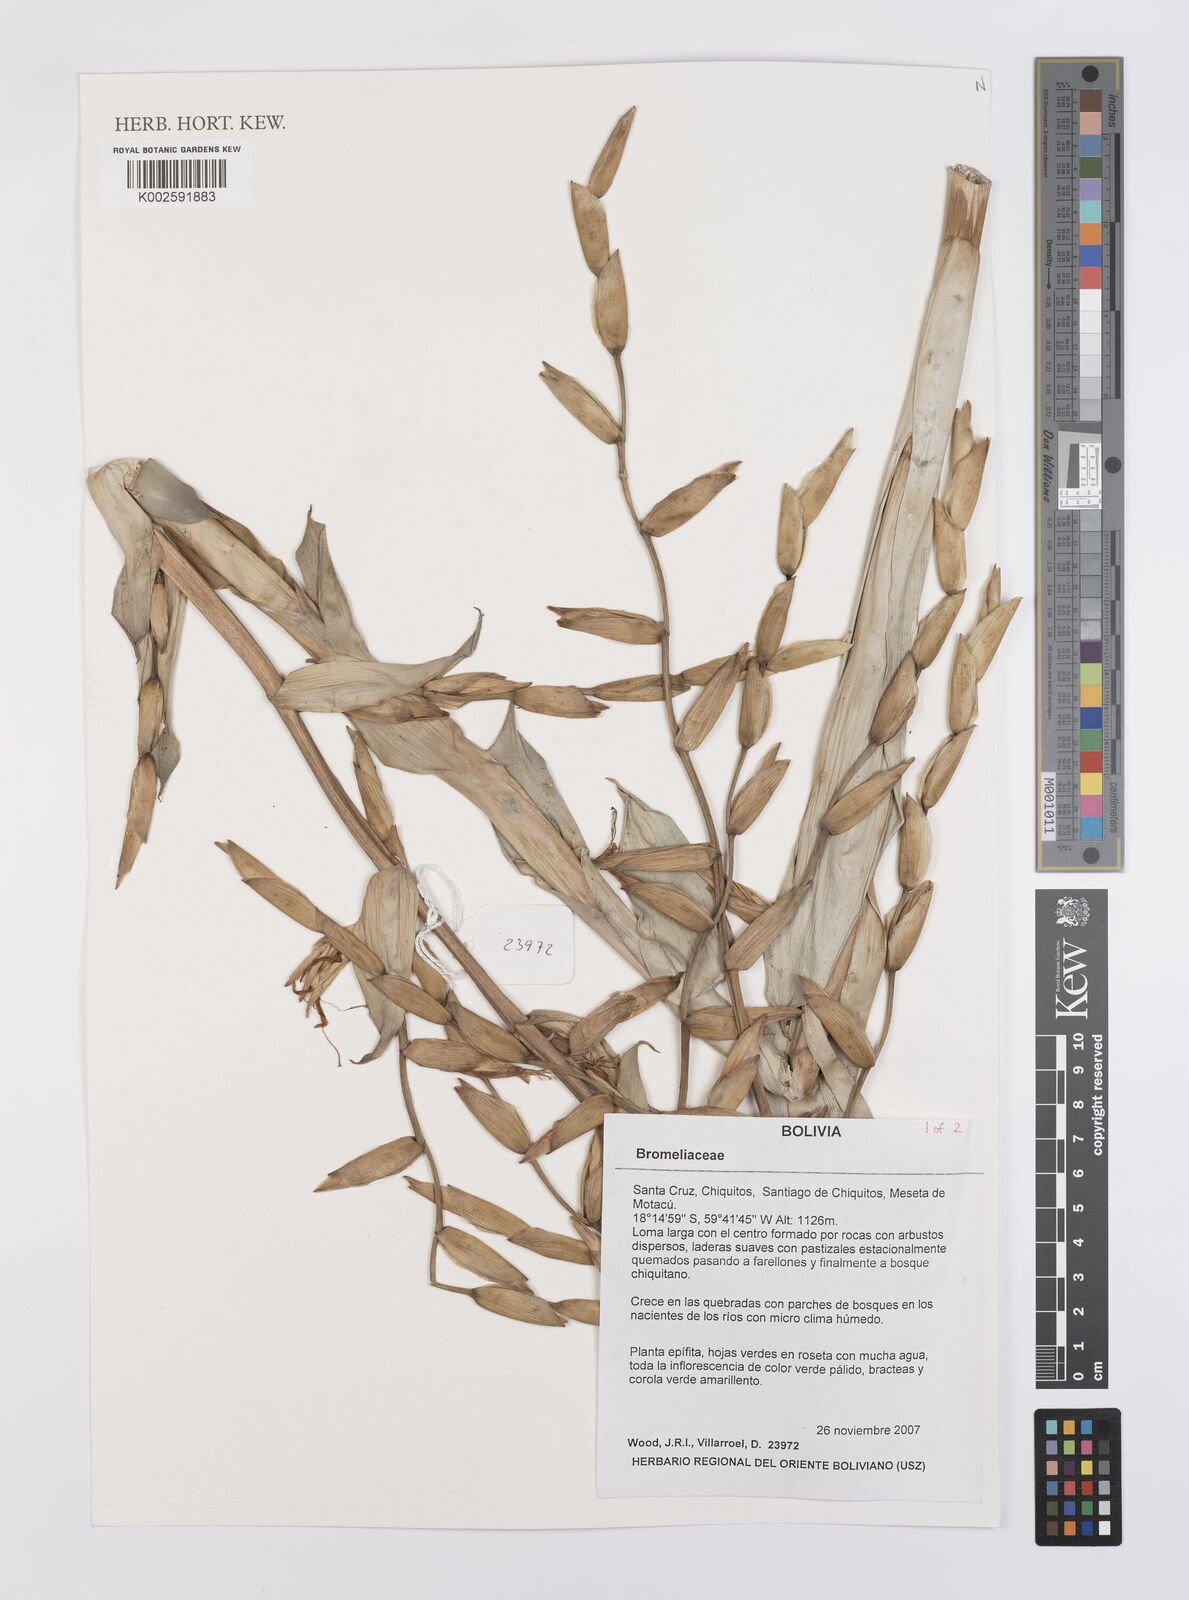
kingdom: Plantae
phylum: Tracheophyta
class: Liliopsida
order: Poales
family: Bromeliaceae
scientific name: Bromeliaceae
